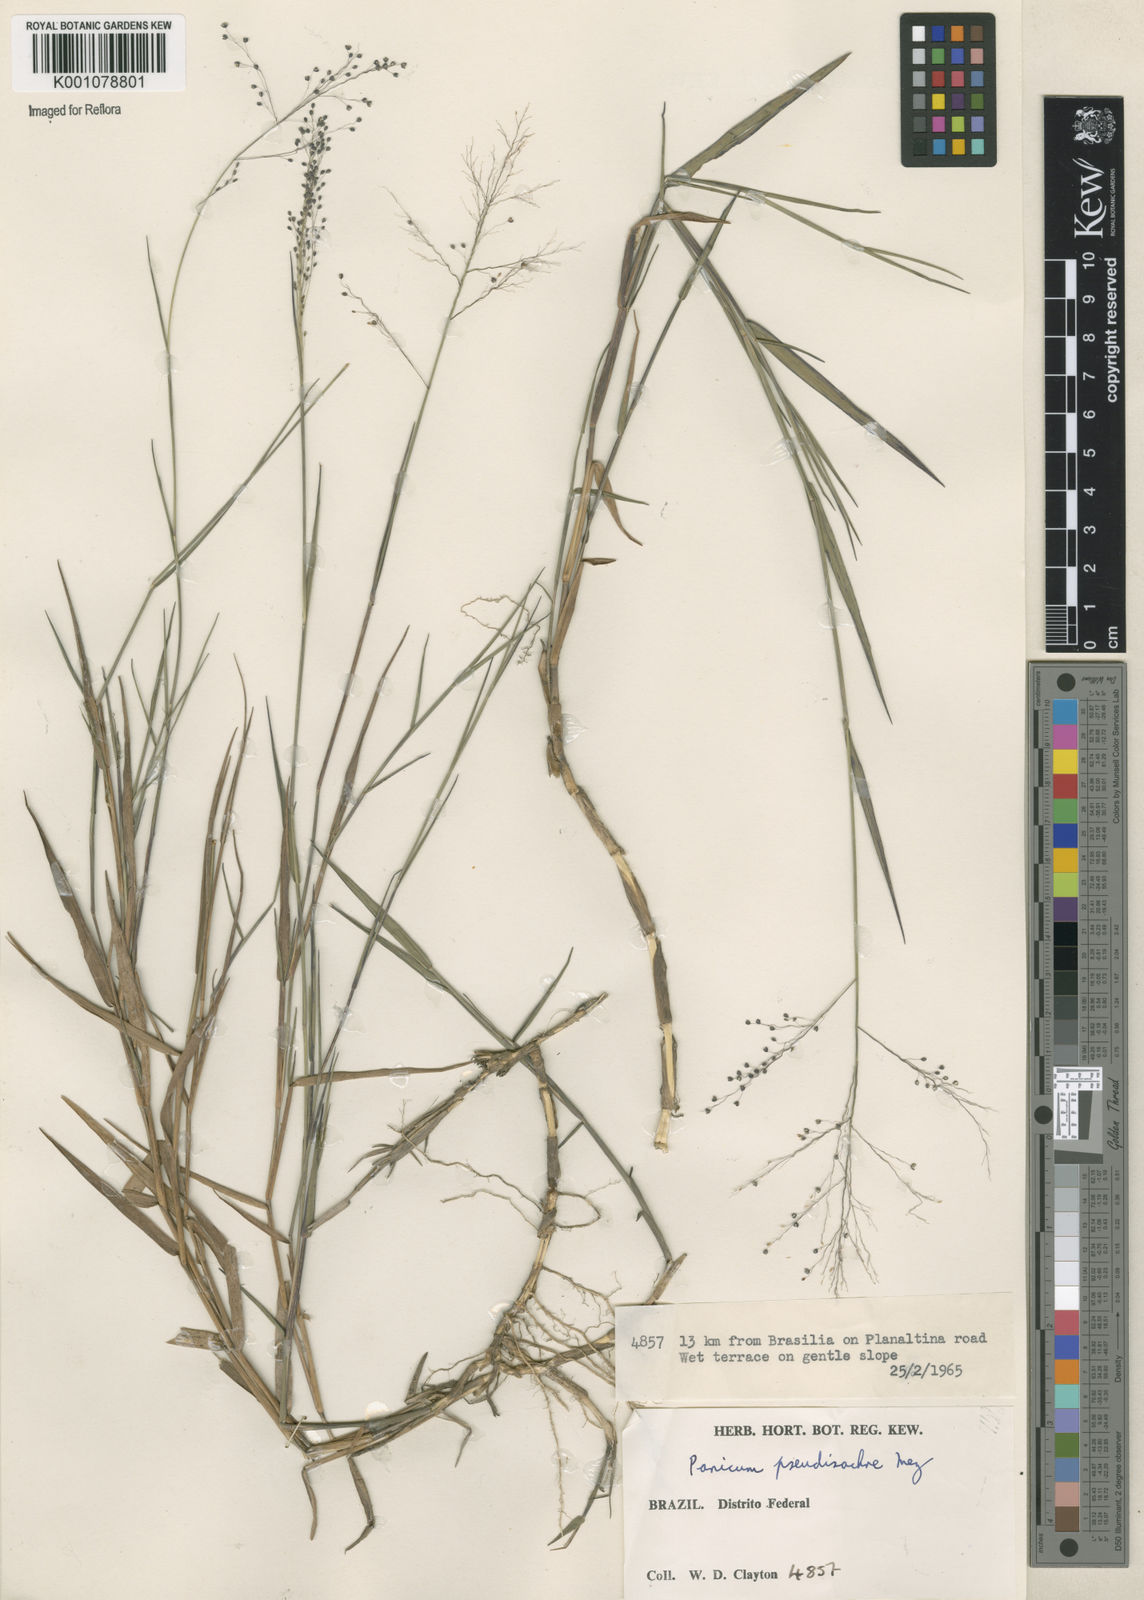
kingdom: Plantae
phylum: Tracheophyta
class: Liliopsida
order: Poales
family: Poaceae
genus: Trichanthecium
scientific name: Trichanthecium pseudisachne
